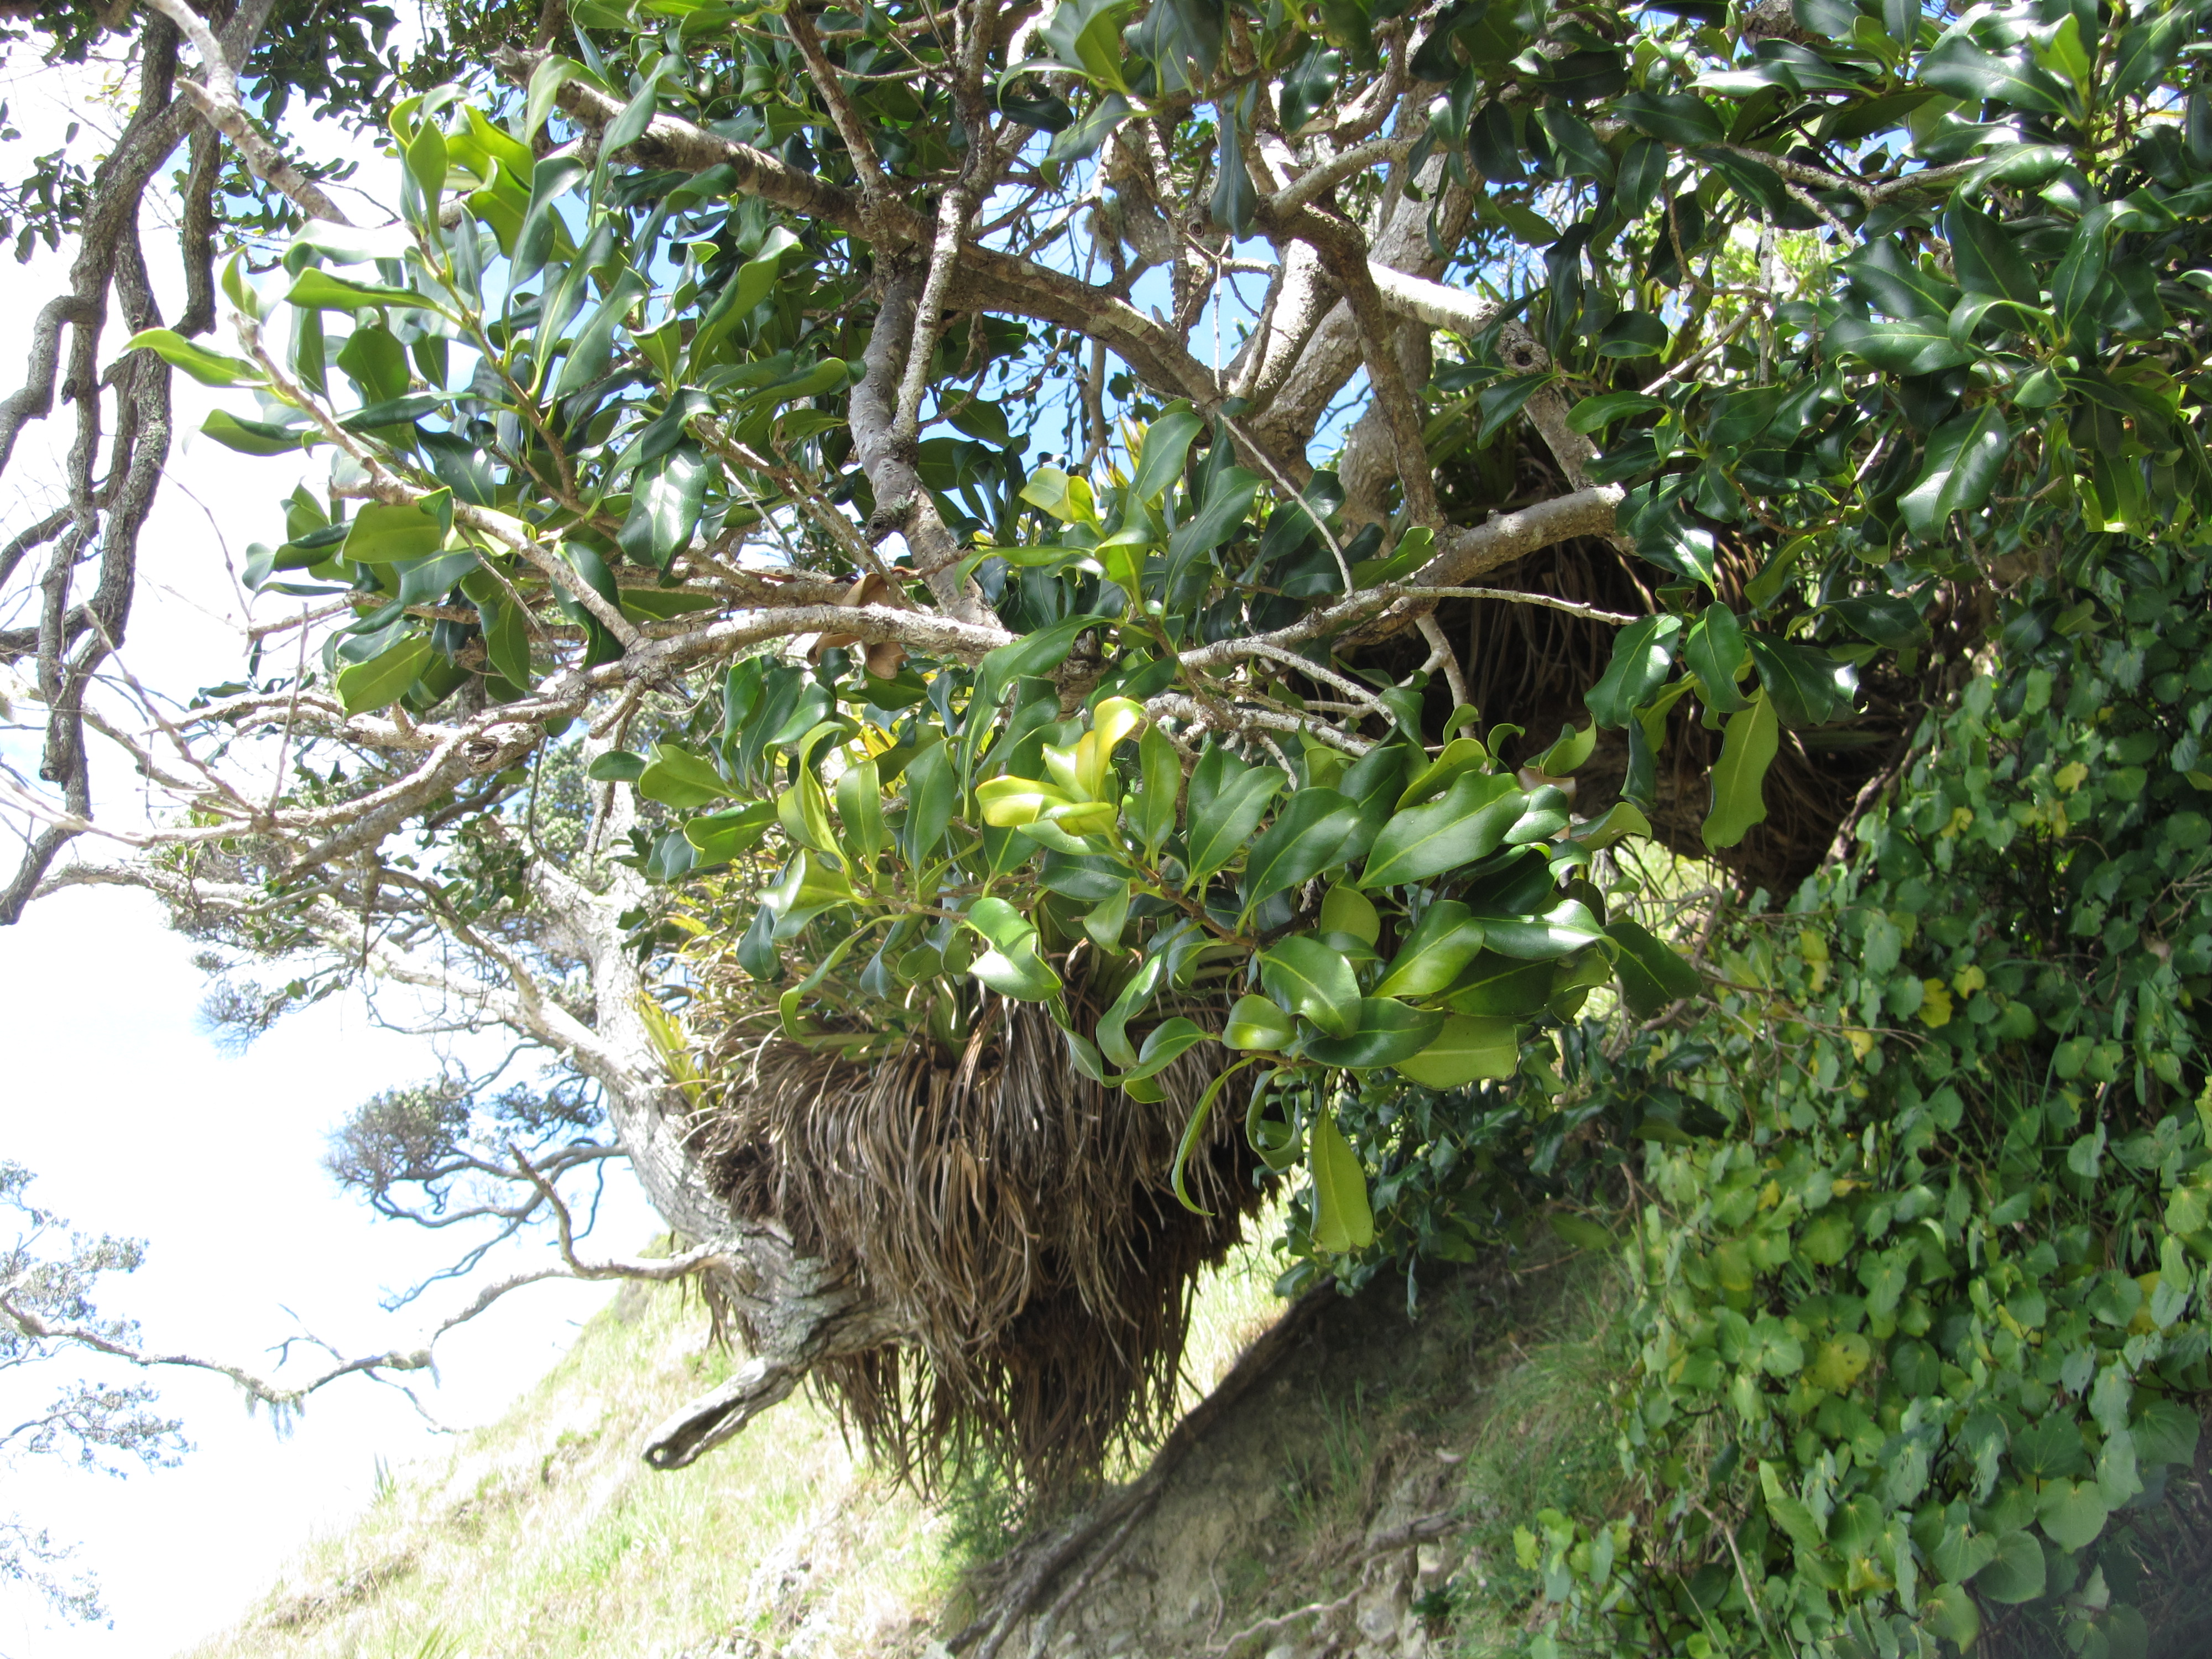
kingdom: Plantae
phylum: Tracheophyta
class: Magnoliopsida
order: Lamiales
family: Oleaceae
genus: Nestegis
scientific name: Nestegis apetala
